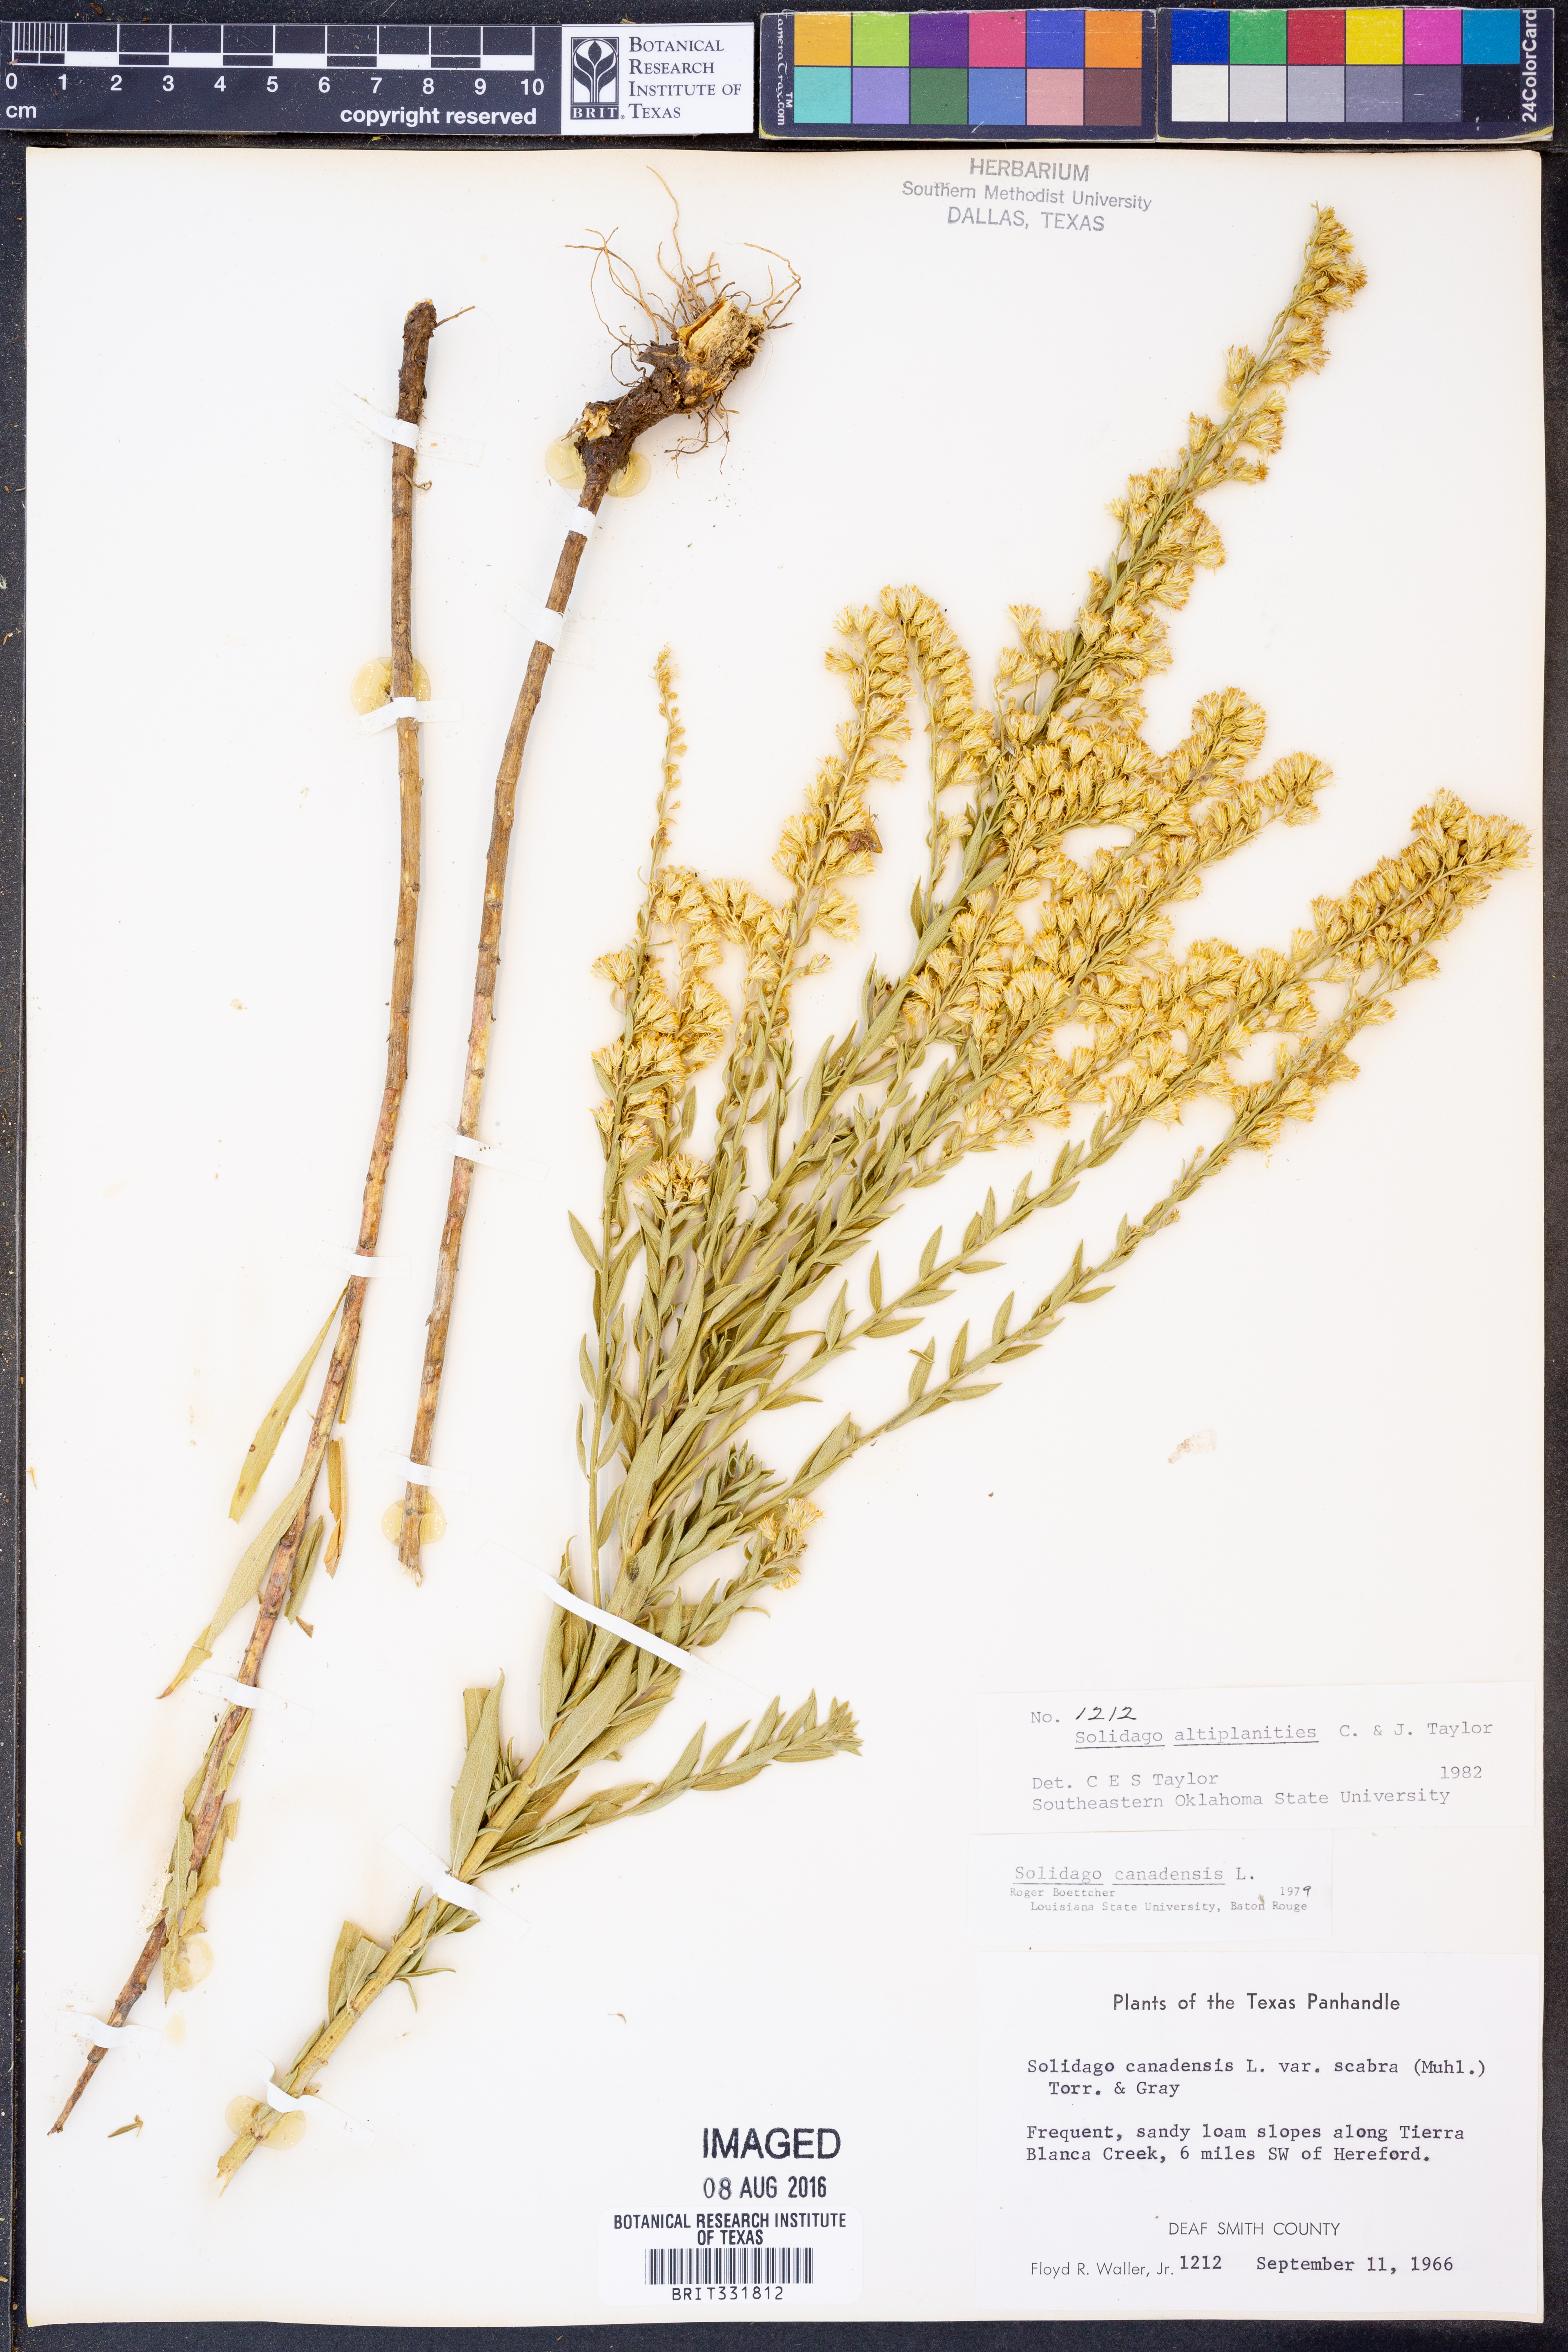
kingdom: Plantae
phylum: Tracheophyta
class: Magnoliopsida
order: Asterales
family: Asteraceae
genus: Solidago
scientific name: Solidago altiplanities
